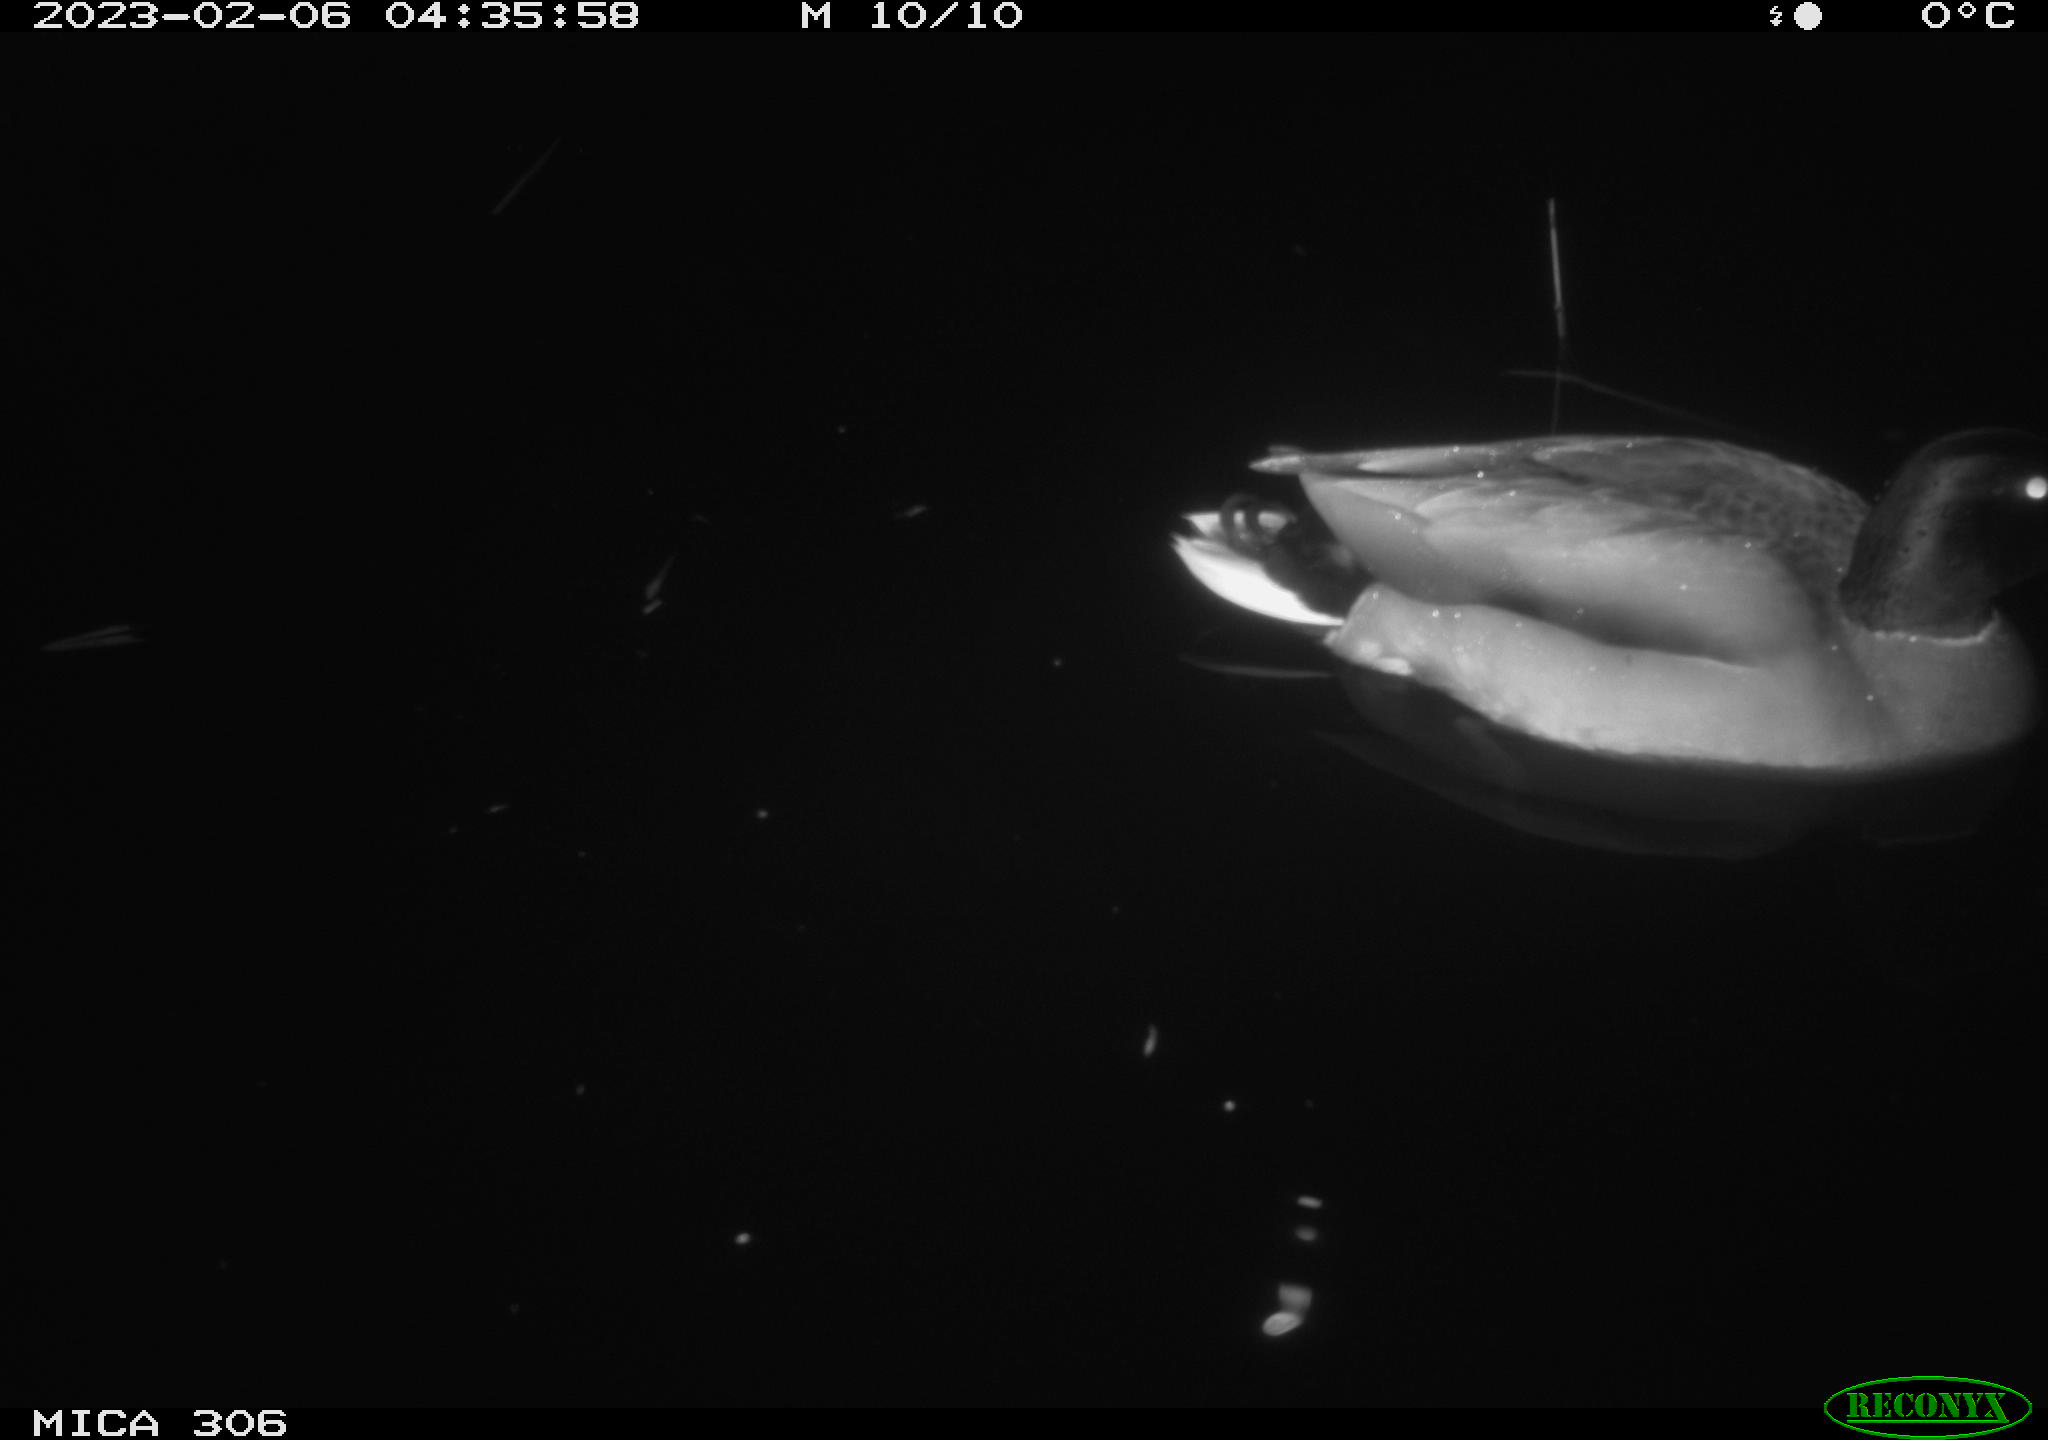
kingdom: Animalia
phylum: Chordata
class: Aves
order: Anseriformes
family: Anatidae
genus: Anas
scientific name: Anas
